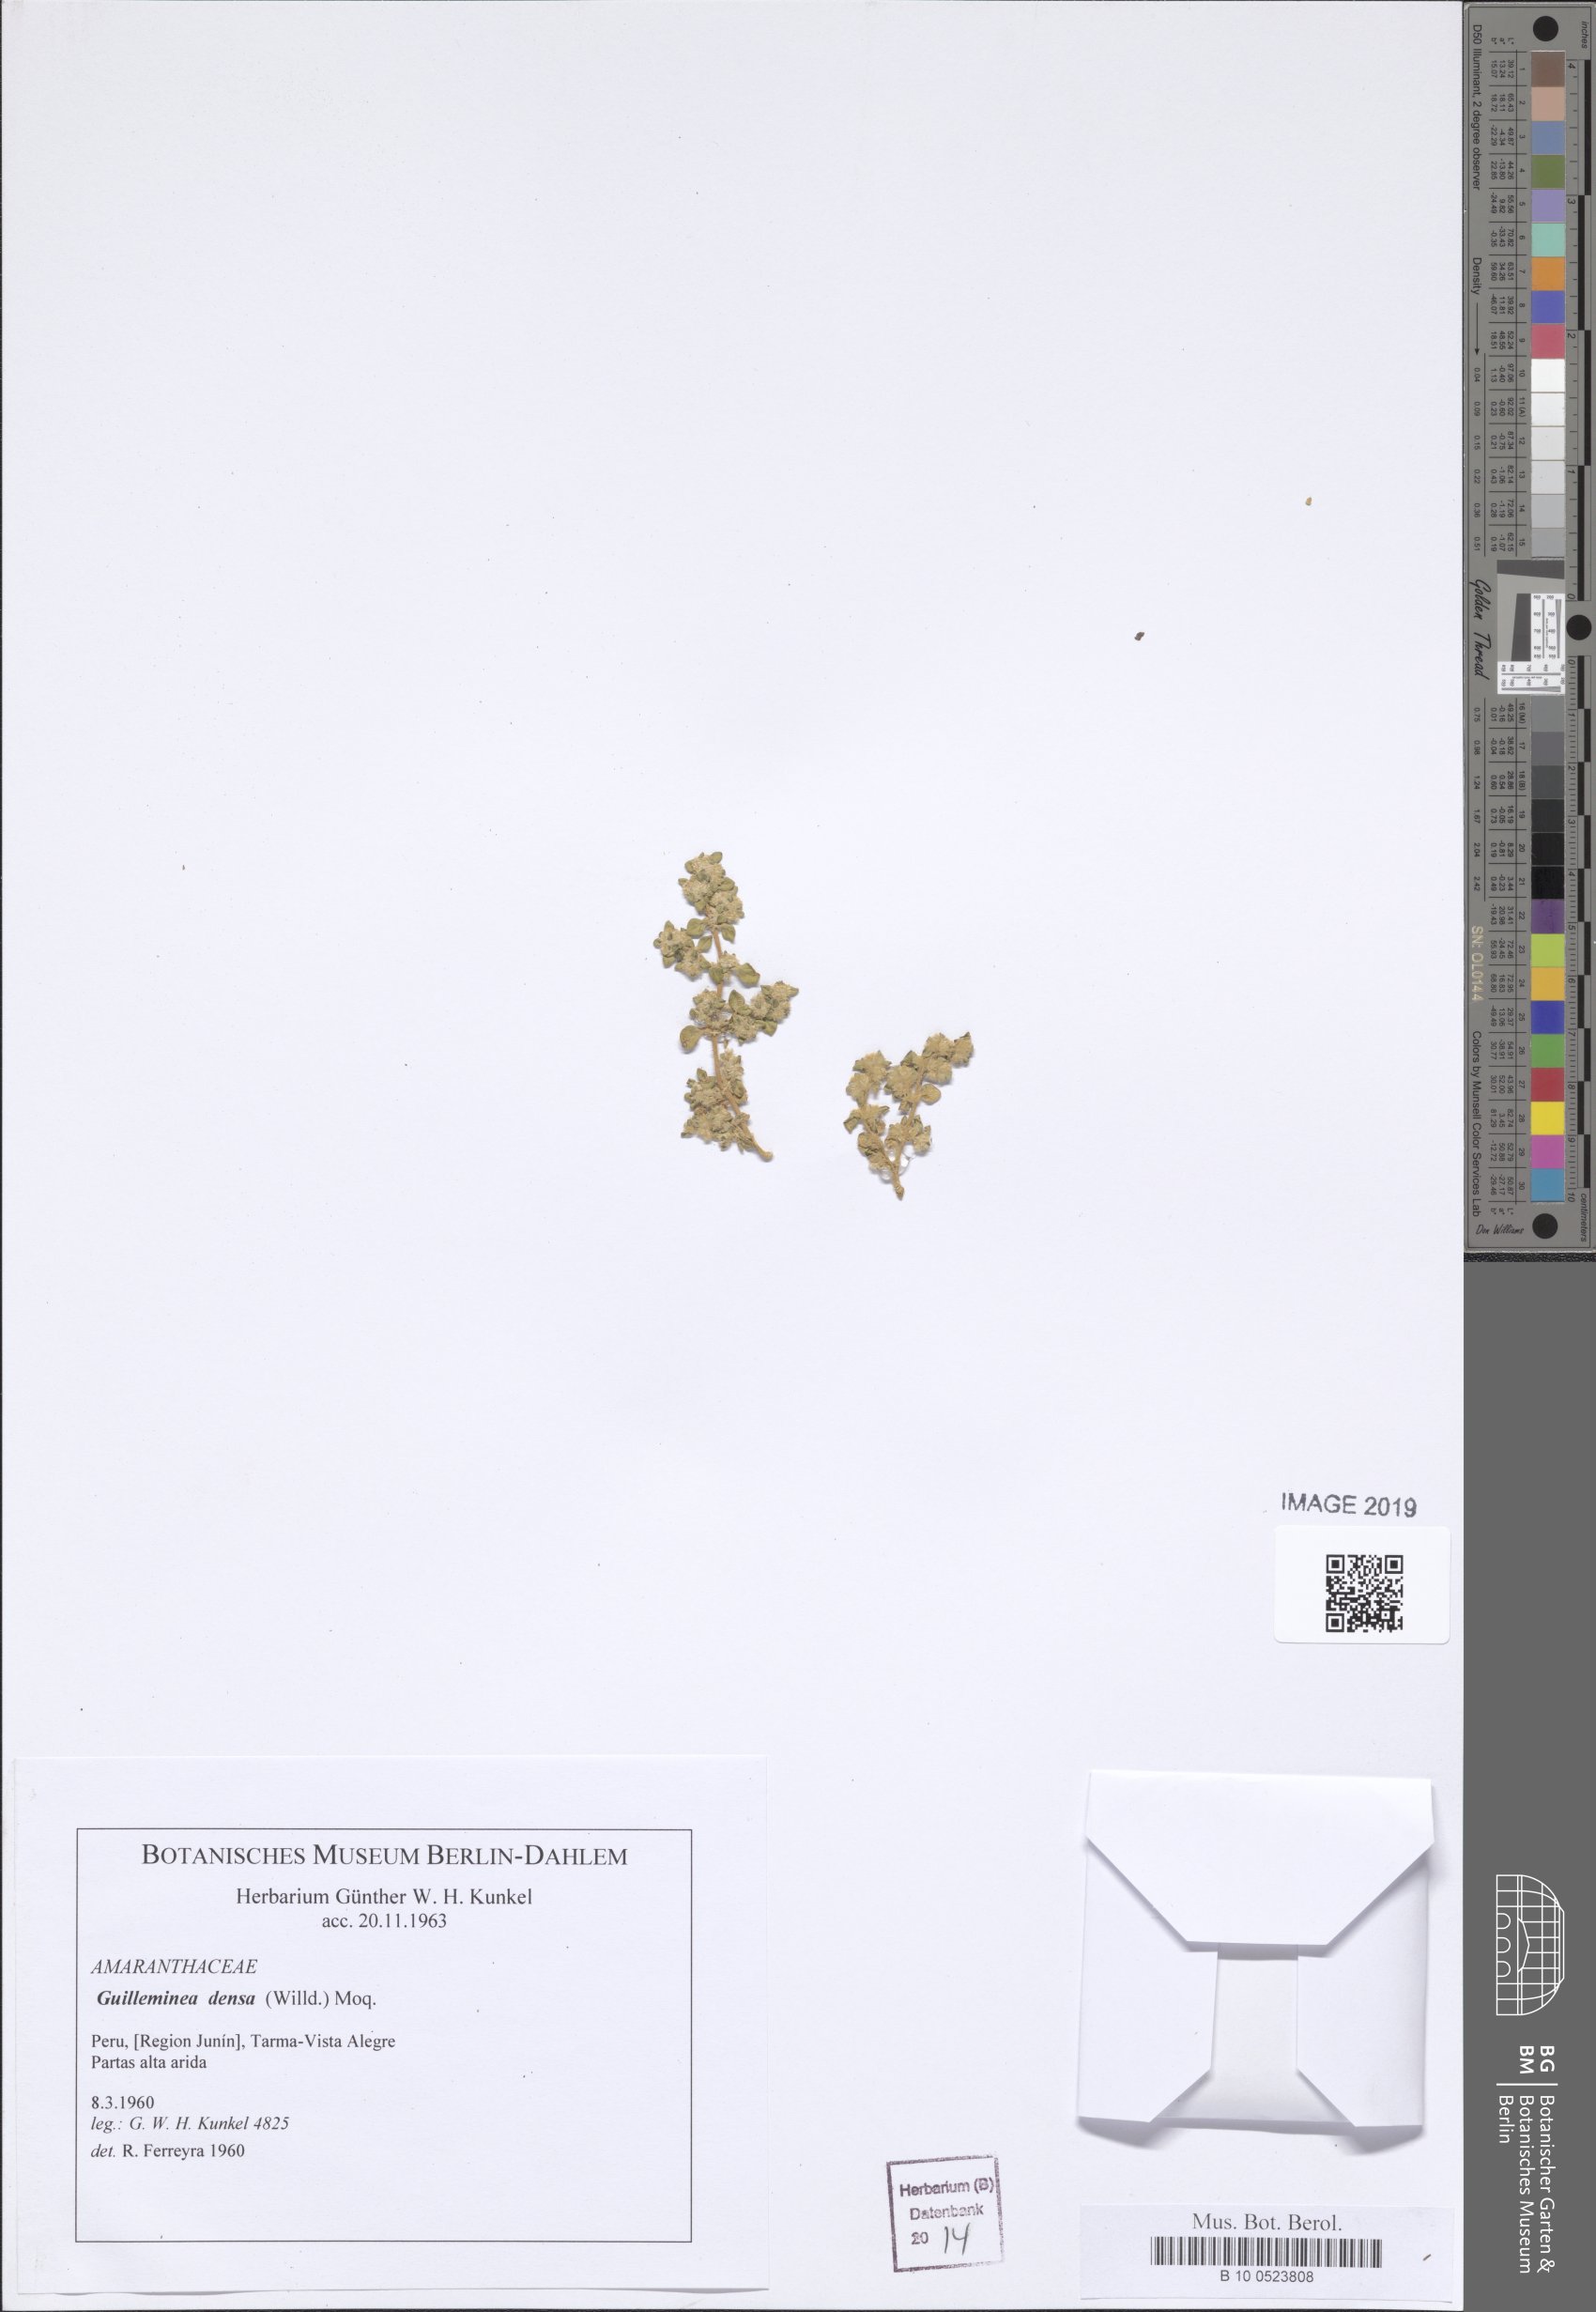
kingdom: Plantae
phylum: Tracheophyta
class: Magnoliopsida
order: Caryophyllales
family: Amaranthaceae
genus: Guilleminea
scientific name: Guilleminea densa
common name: Small matweed
